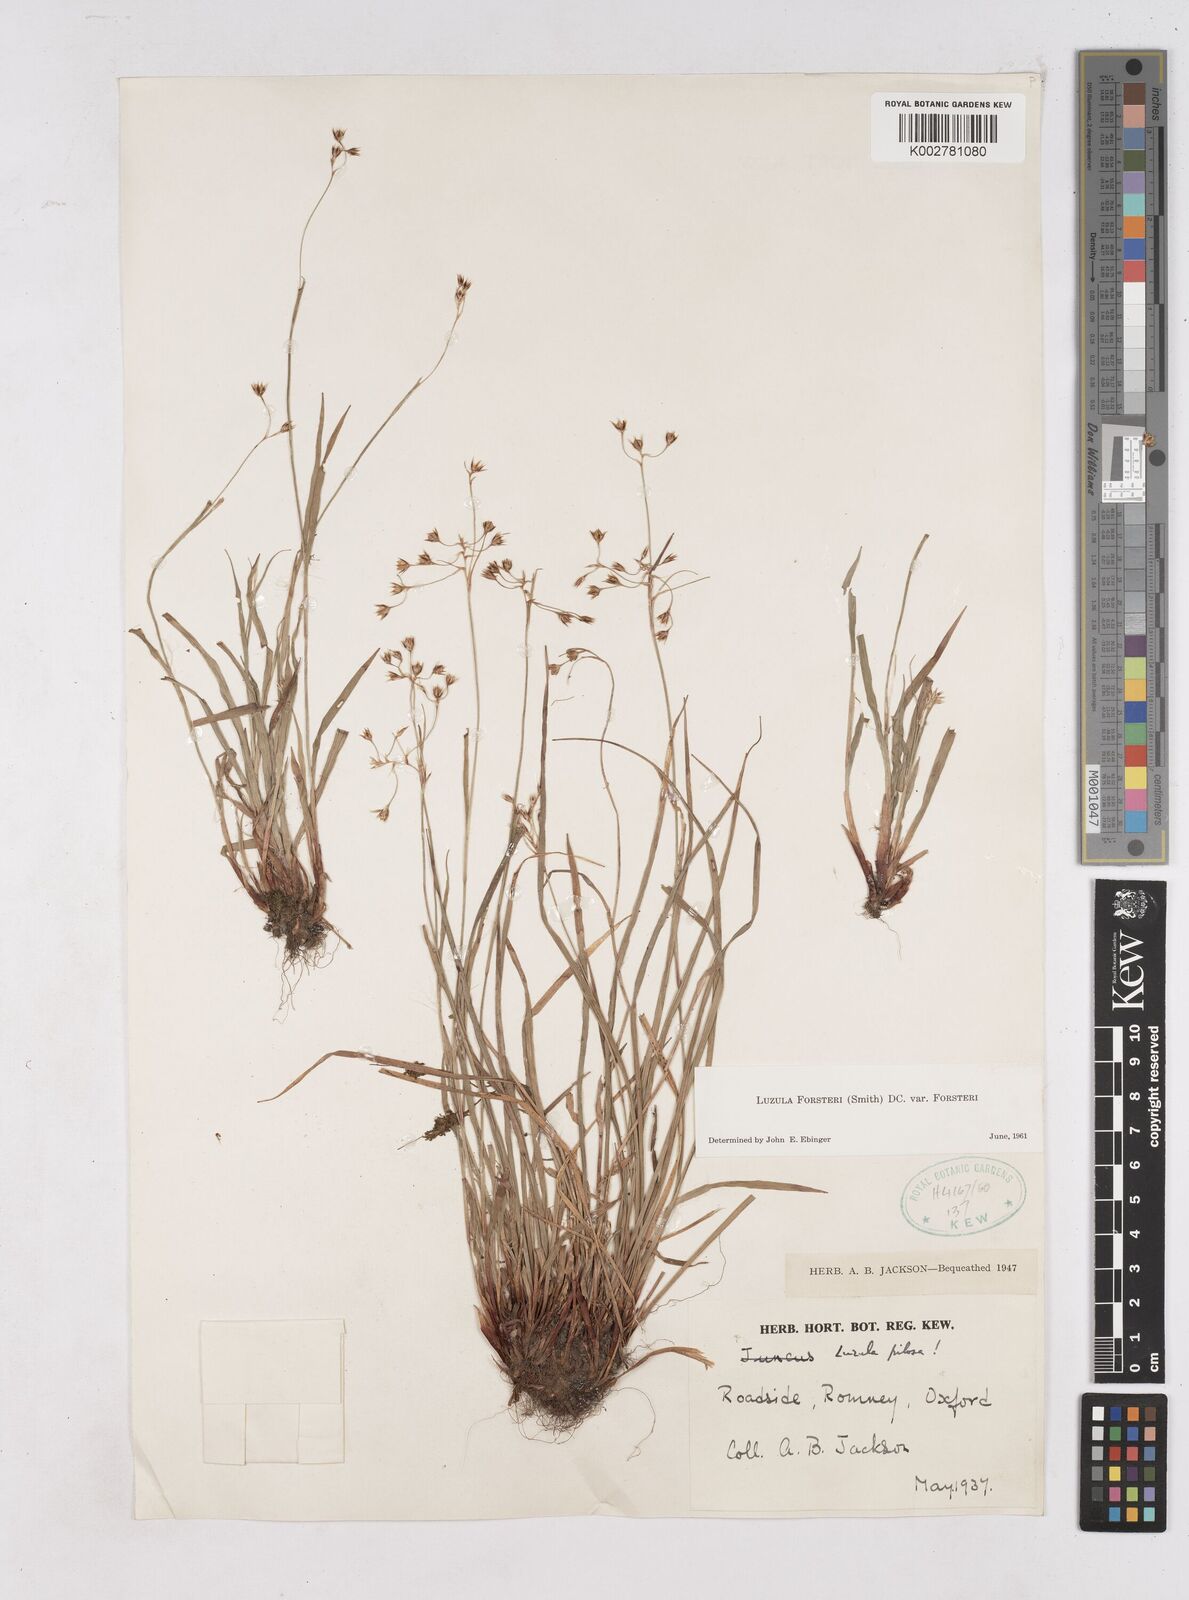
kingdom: Plantae
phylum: Tracheophyta
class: Liliopsida
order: Poales
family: Juncaceae
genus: Luzula
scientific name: Luzula forsteri
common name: Southern wood-rush
